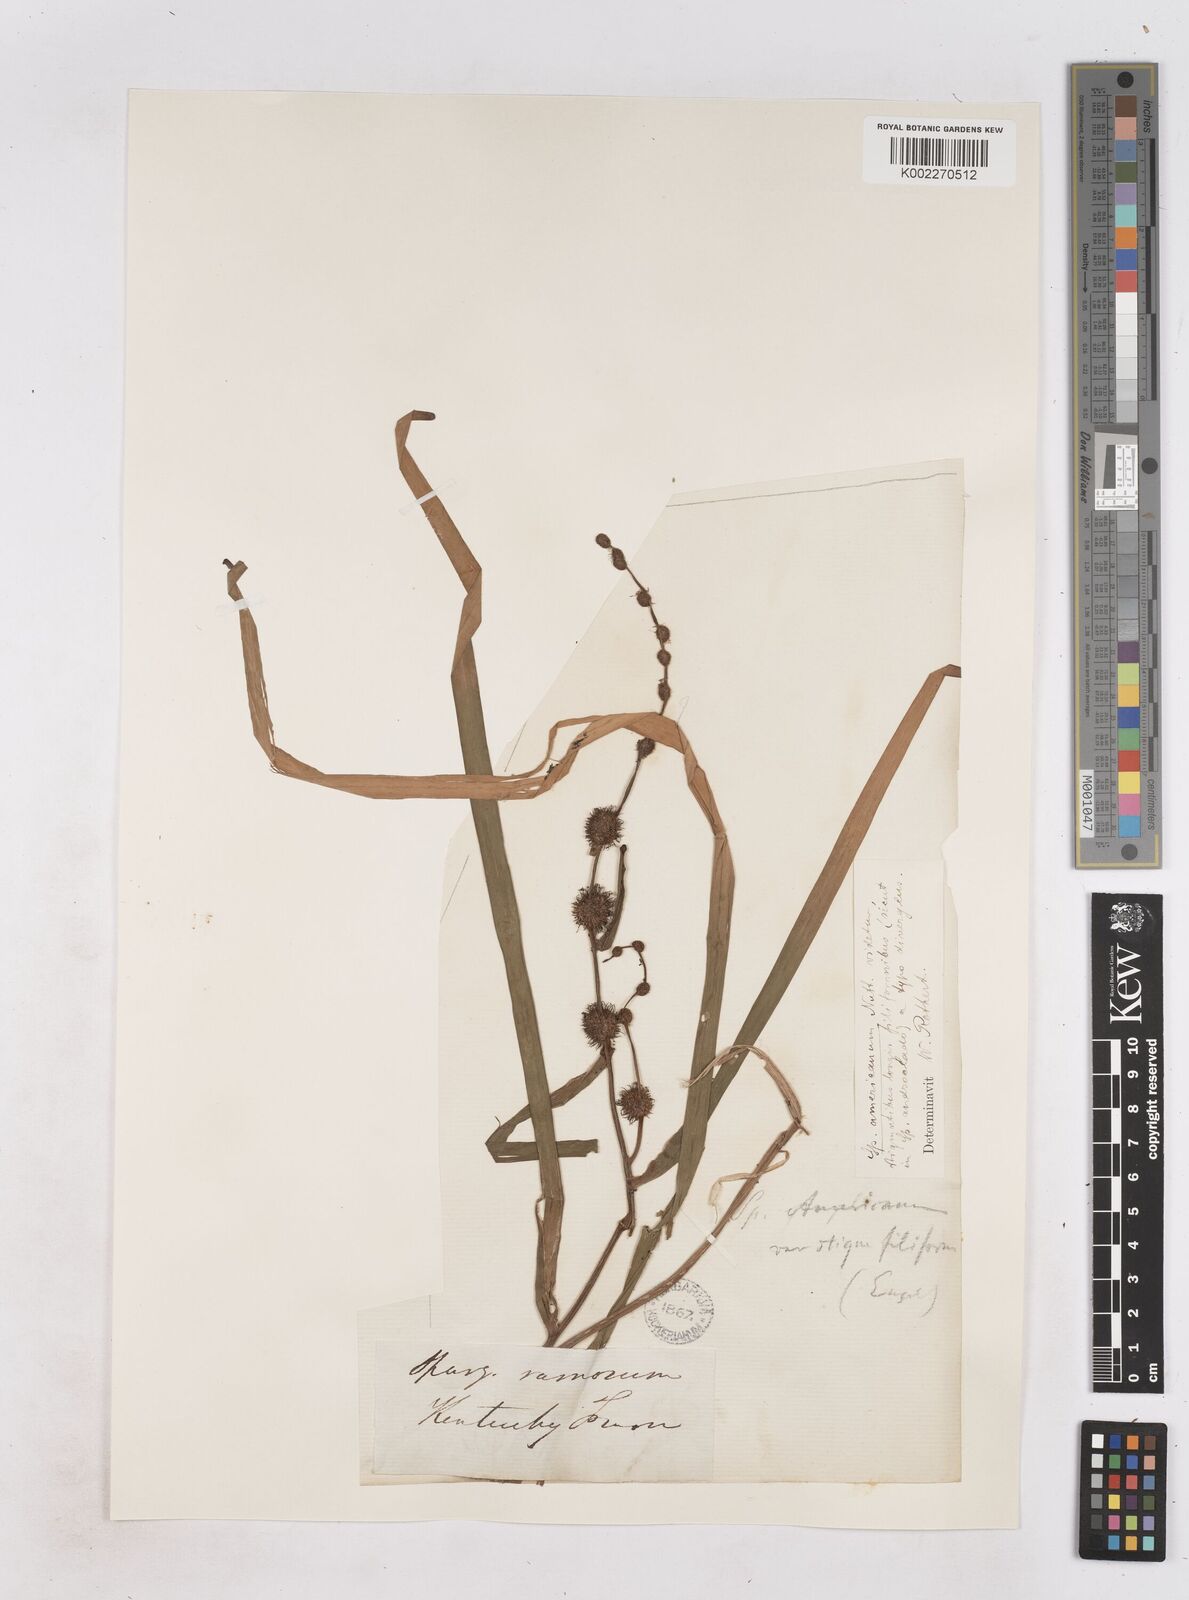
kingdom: Plantae
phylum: Tracheophyta
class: Liliopsida
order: Poales
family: Typhaceae
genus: Sparganium
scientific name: Sparganium americanum
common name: American burreed
